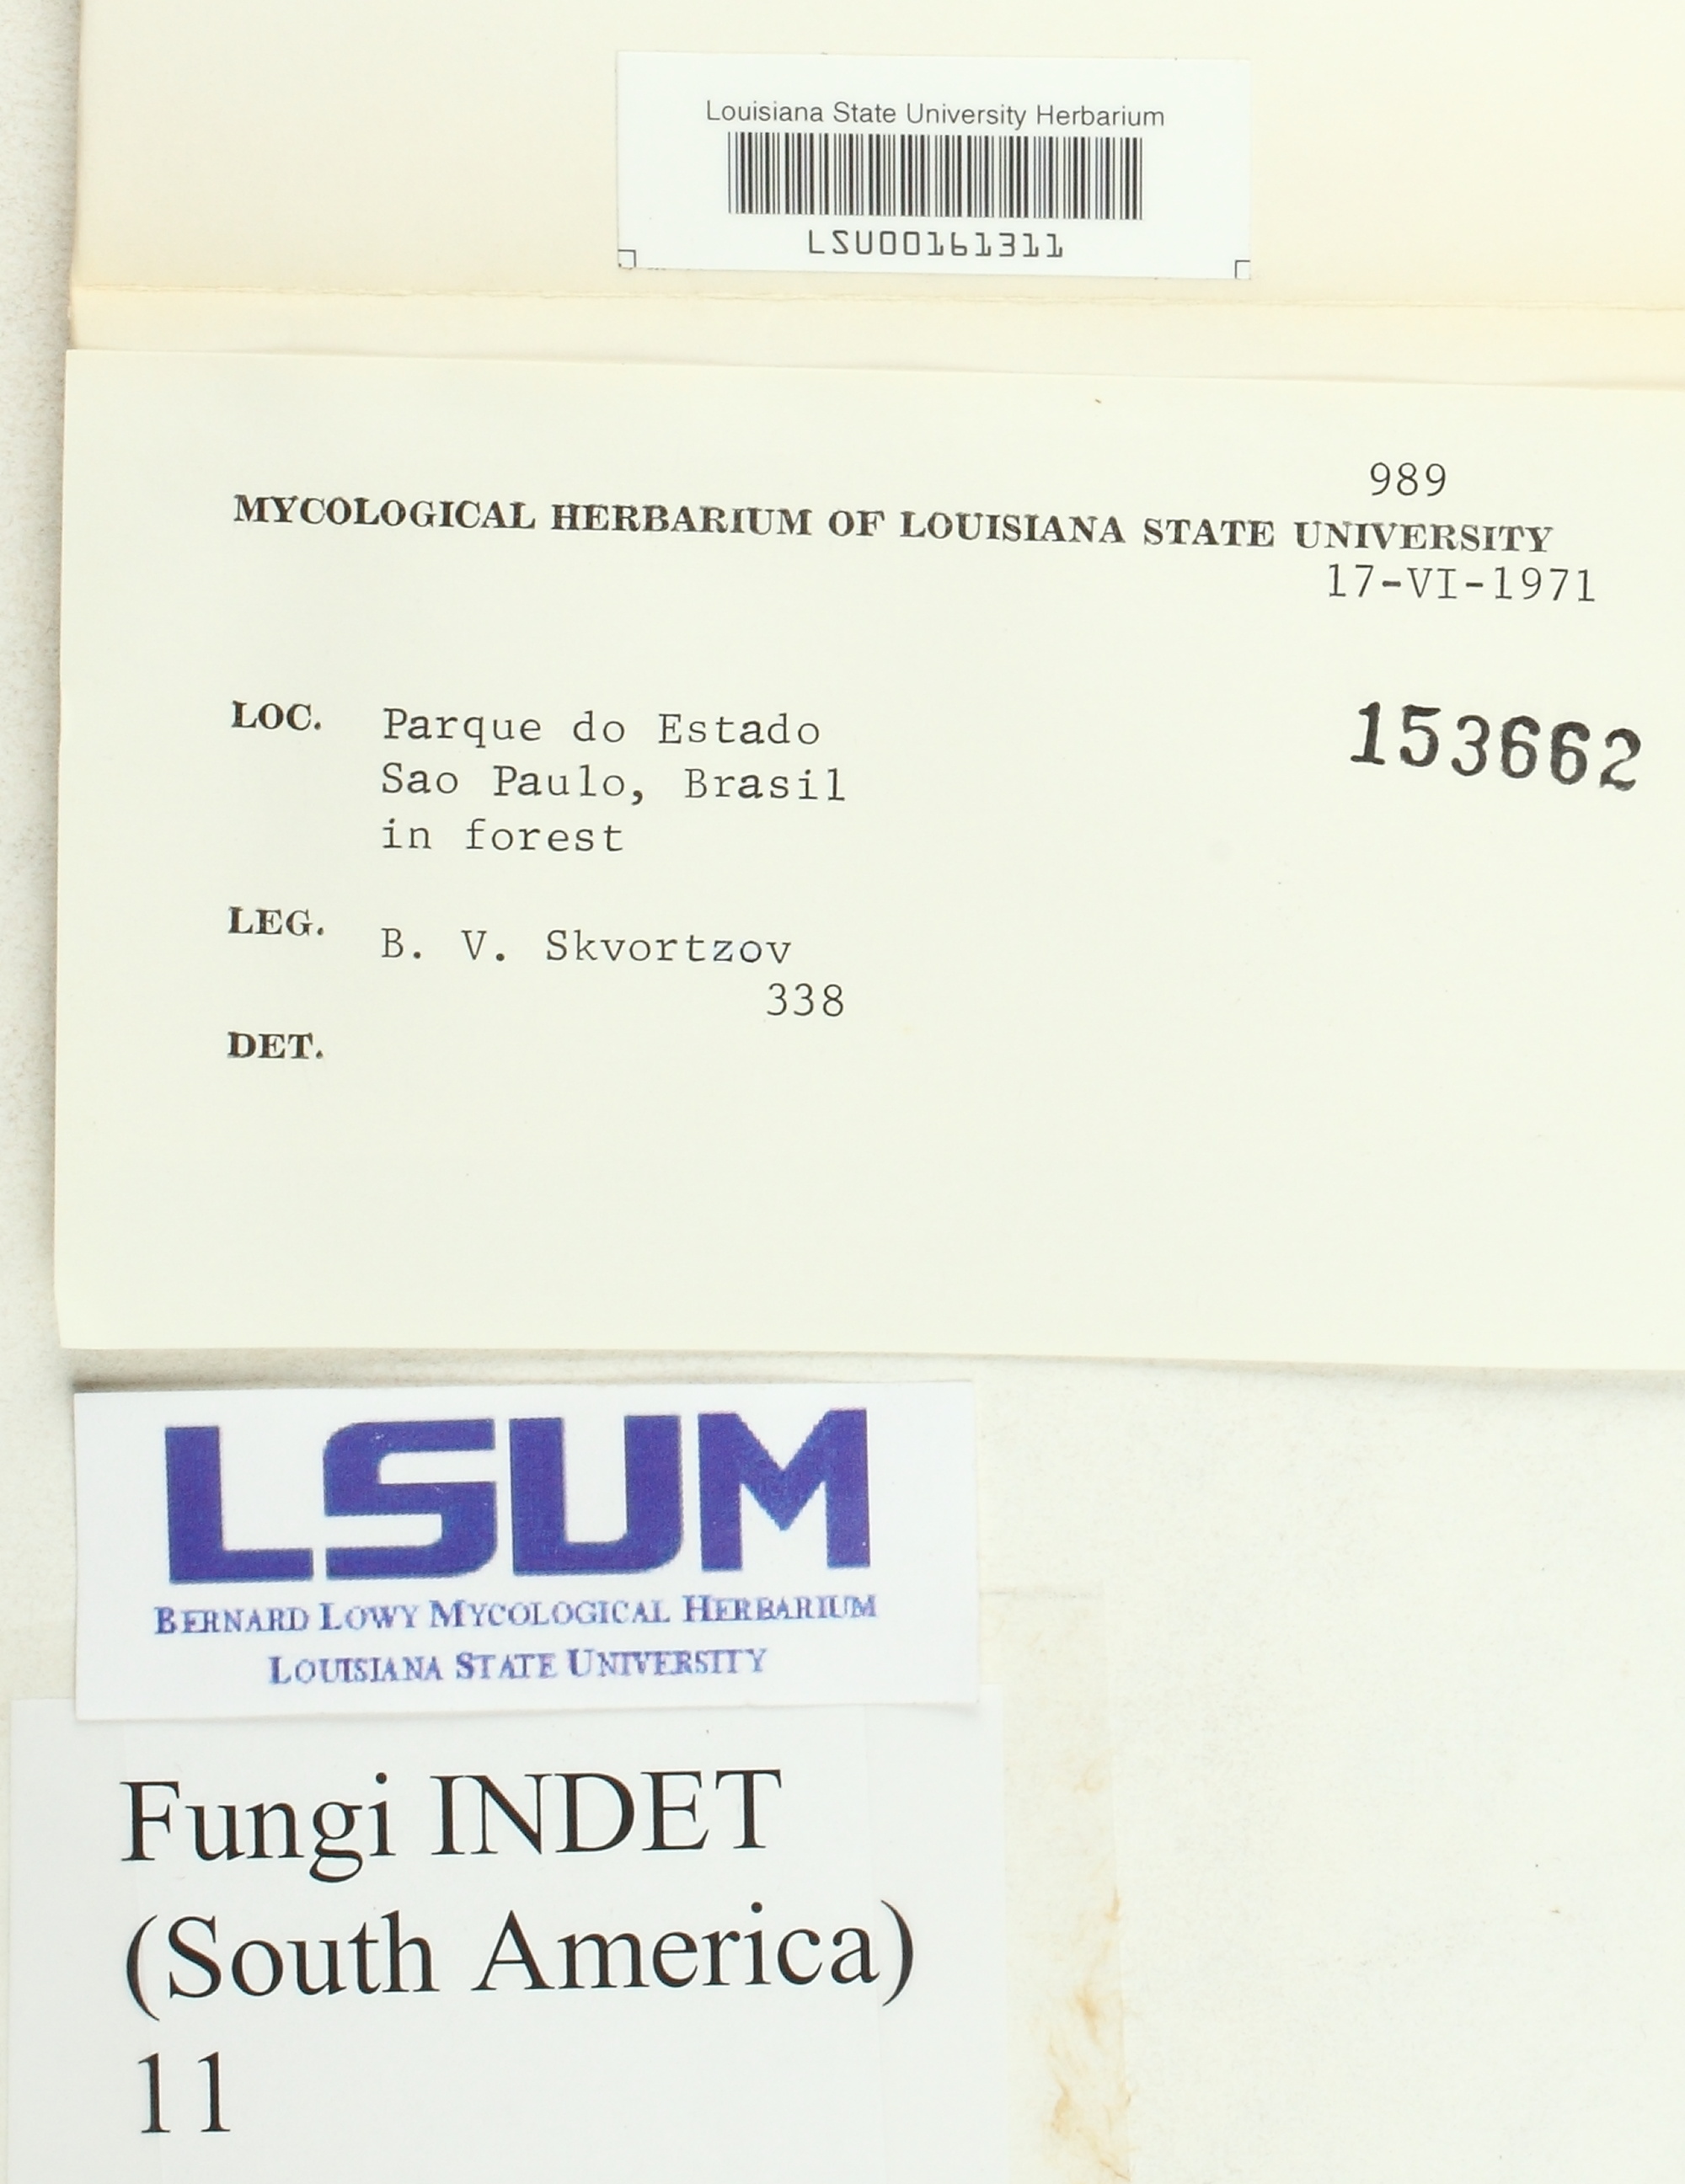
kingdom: Fungi
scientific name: Fungi
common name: Fungi
